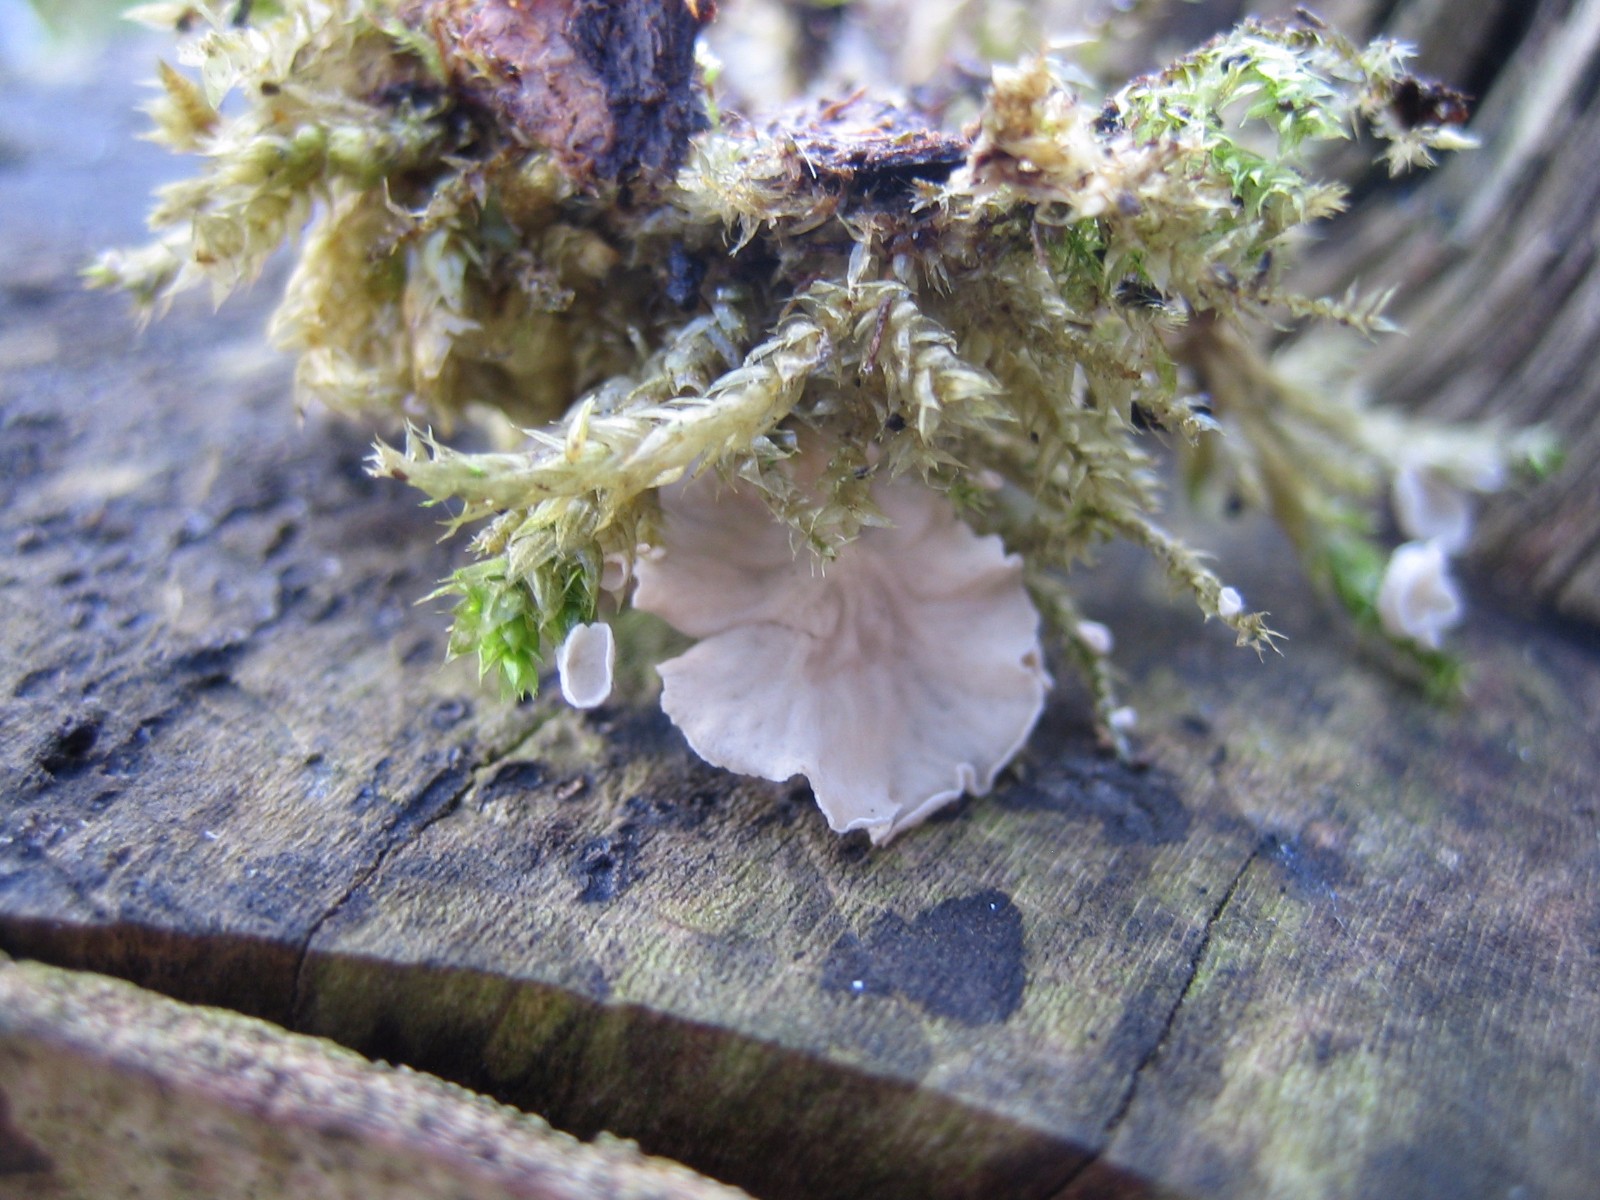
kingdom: Fungi
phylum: Basidiomycota
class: Agaricomycetes
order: Agaricales
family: Hygrophoraceae
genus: Arrhenia
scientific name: Arrhenia retiruga
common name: lille fontænehat
